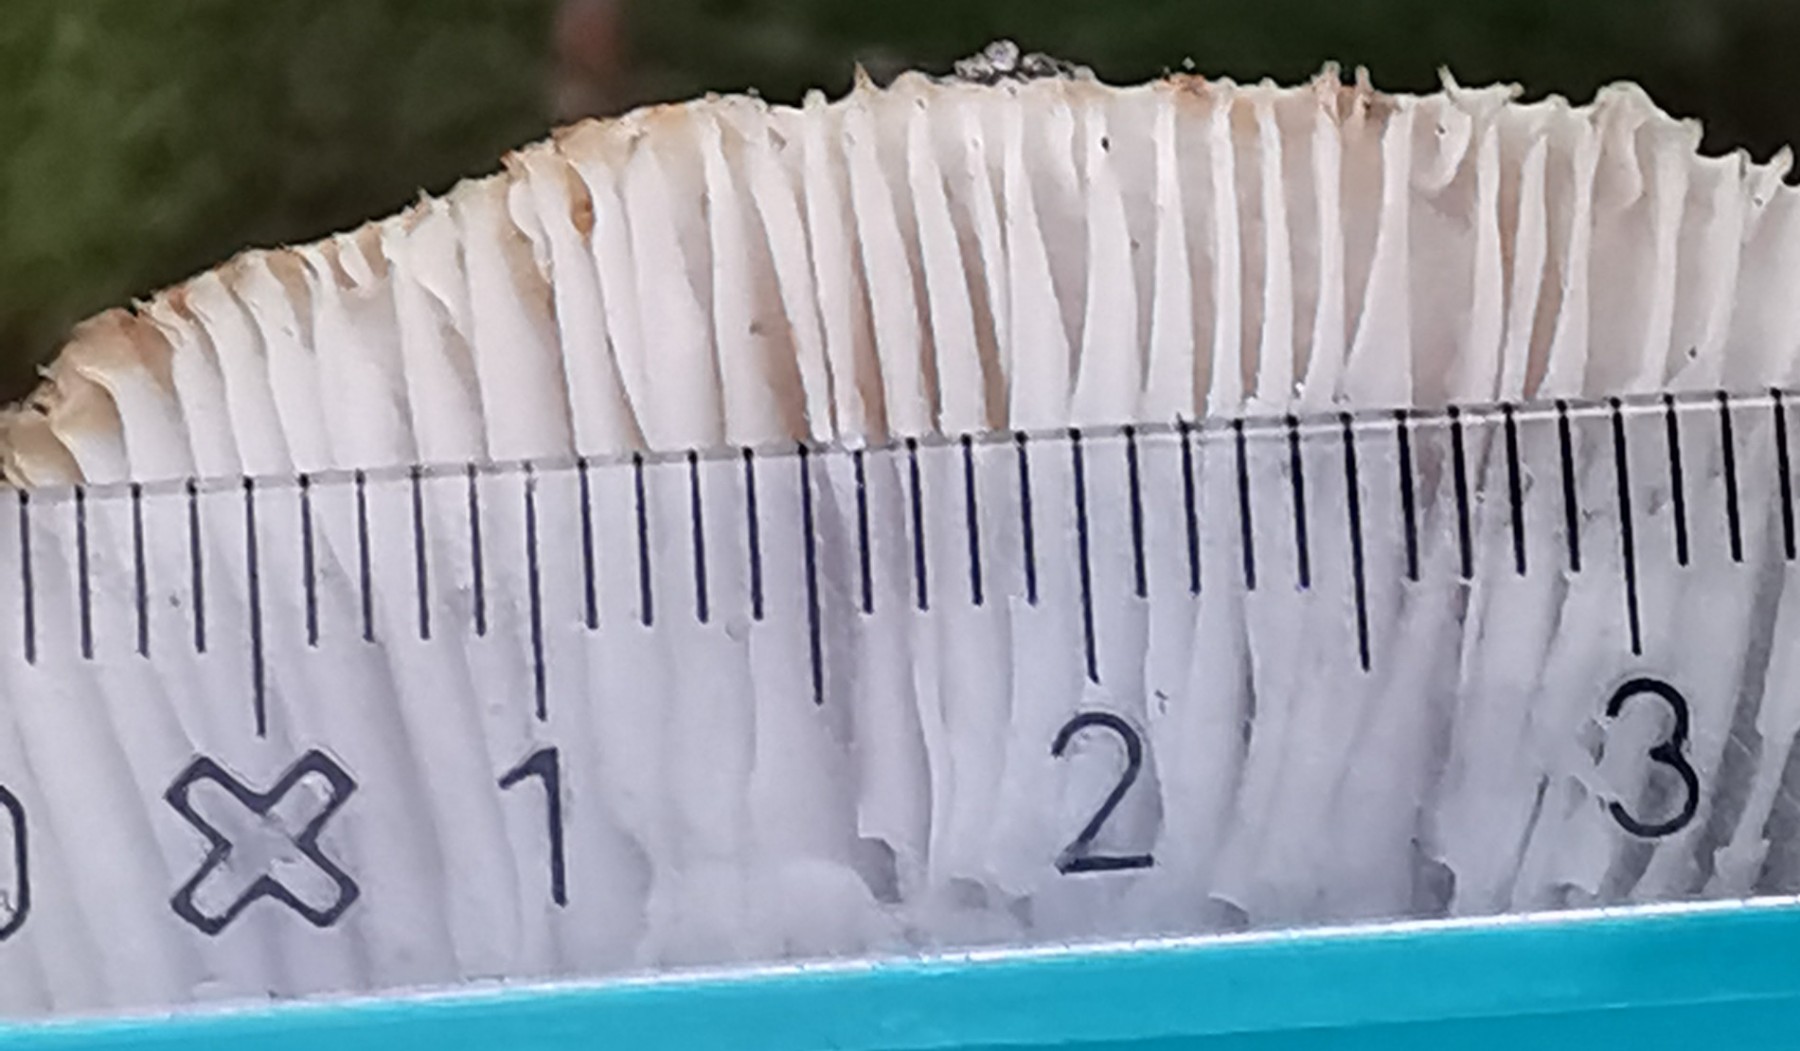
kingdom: Fungi
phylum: Basidiomycota
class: Agaricomycetes
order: Russulales
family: Russulaceae
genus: Russula
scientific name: Russula chloroides
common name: grønhalset tragt-skørhat
